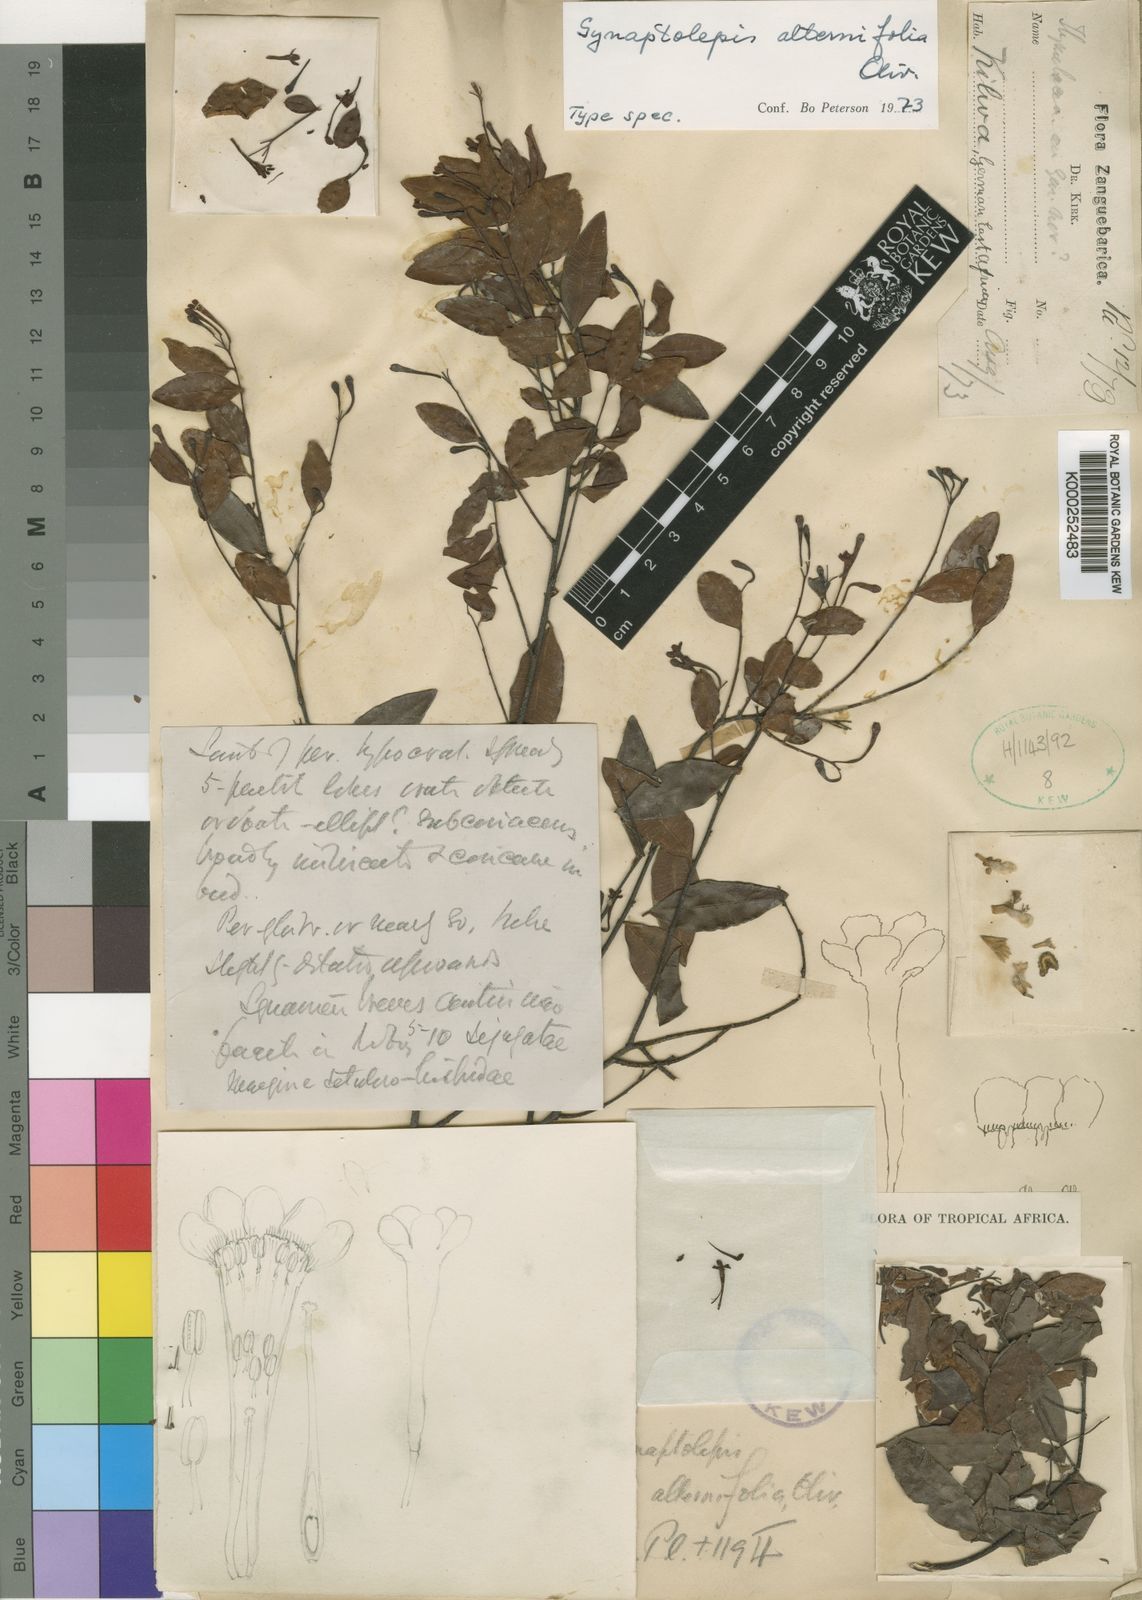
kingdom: Plantae
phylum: Tracheophyta
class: Magnoliopsida
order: Malvales
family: Thymelaeaceae
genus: Synaptolepis
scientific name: Synaptolepis alternifolia
